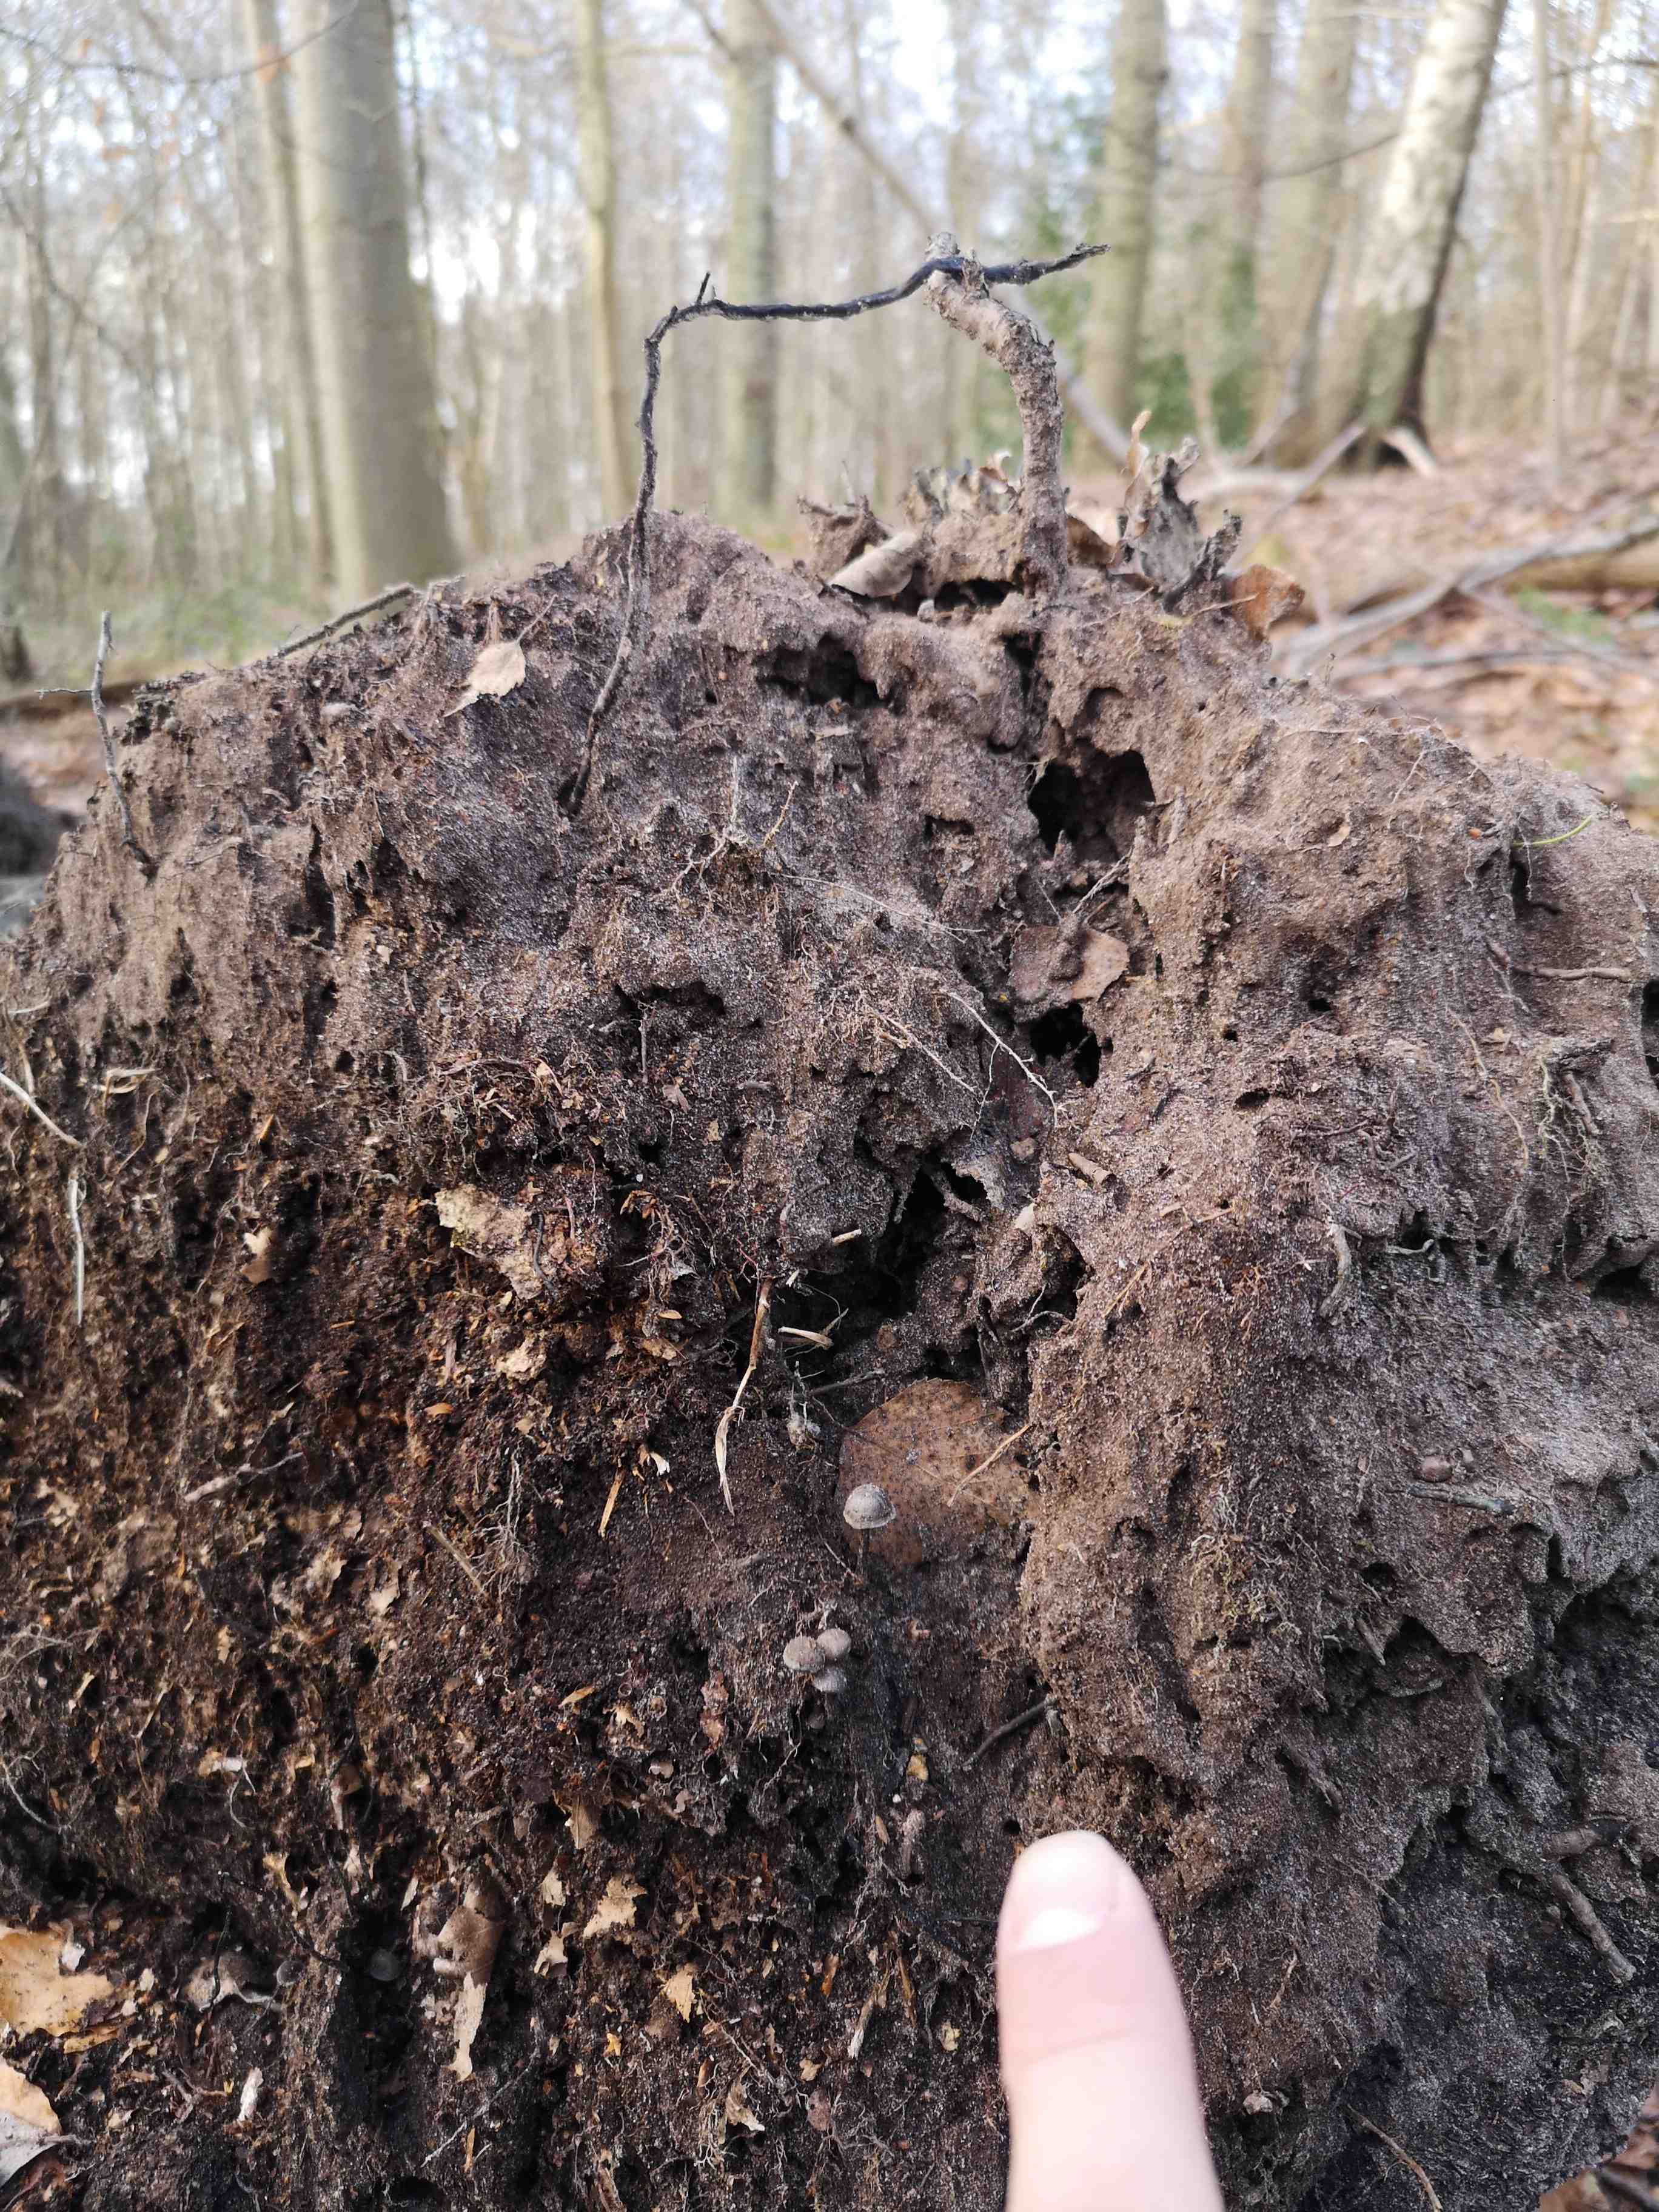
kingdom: Fungi
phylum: Basidiomycota
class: Agaricomycetes
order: Agaricales
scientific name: Agaricales
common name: champignonordenen
